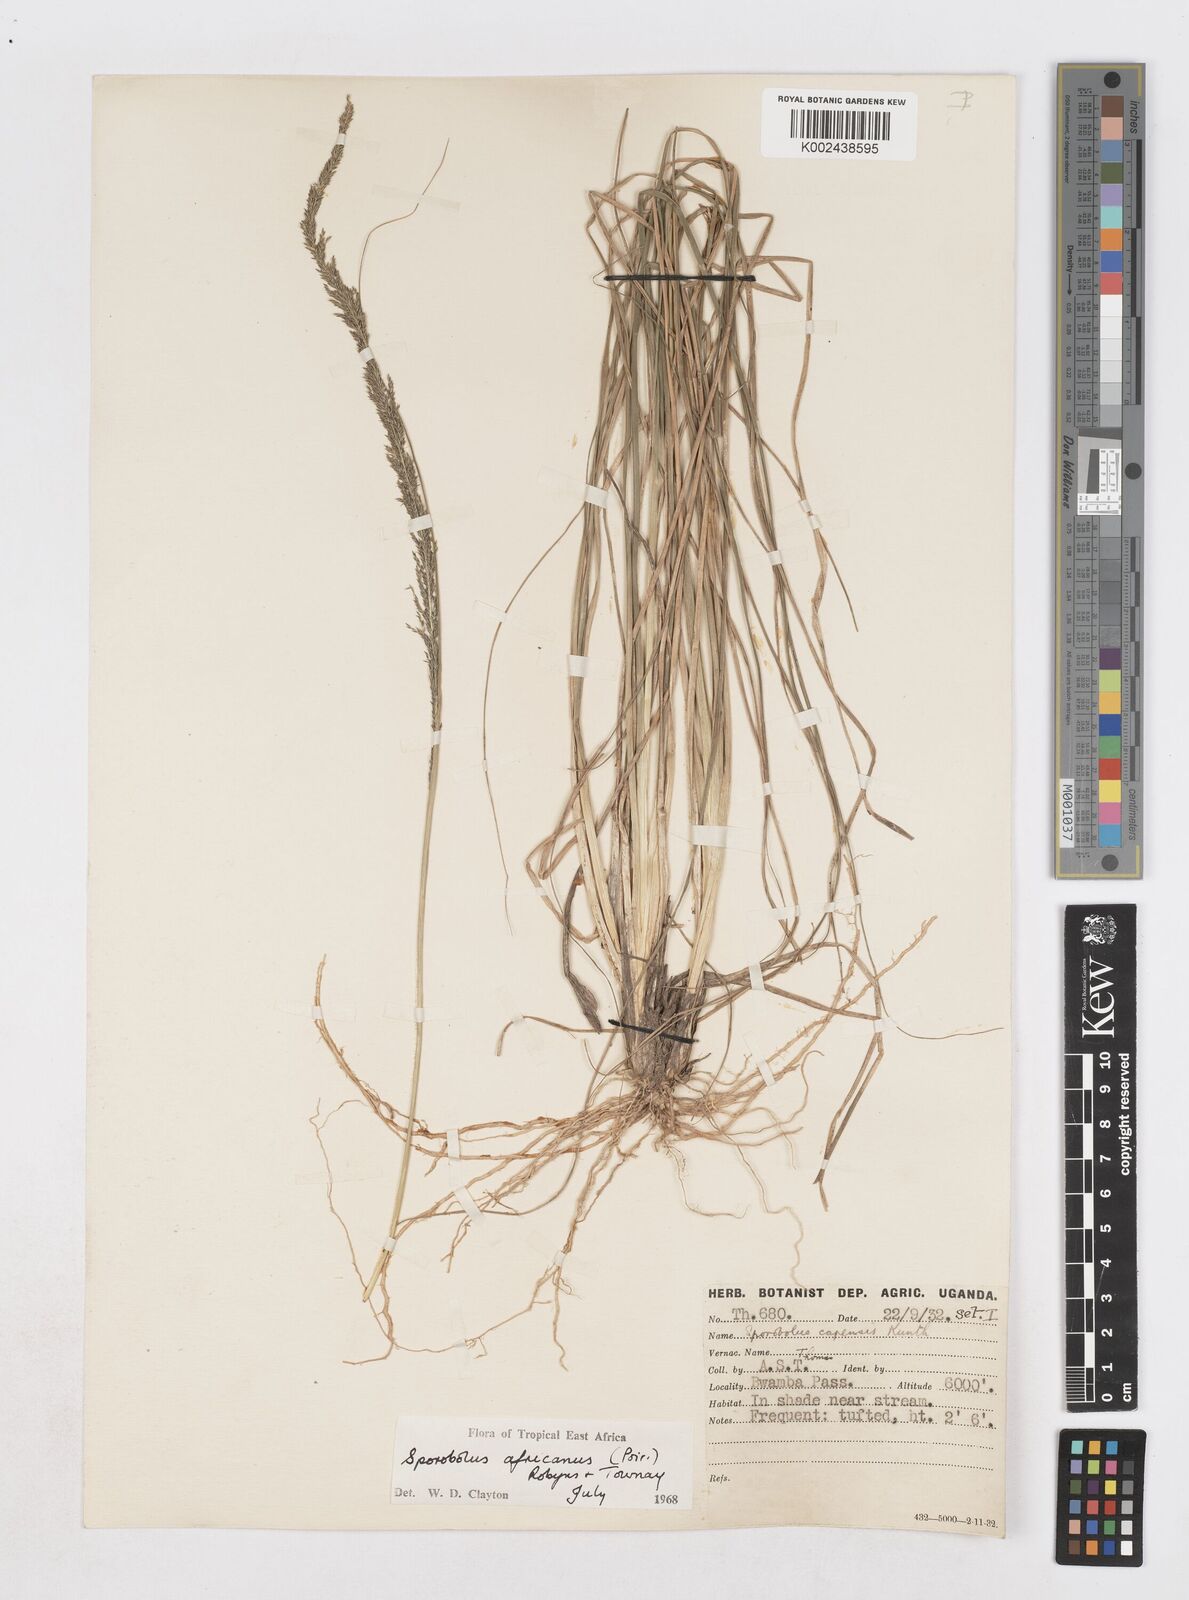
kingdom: Plantae
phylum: Tracheophyta
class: Liliopsida
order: Poales
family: Poaceae
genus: Sporobolus
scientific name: Sporobolus africanus
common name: African dropseed
